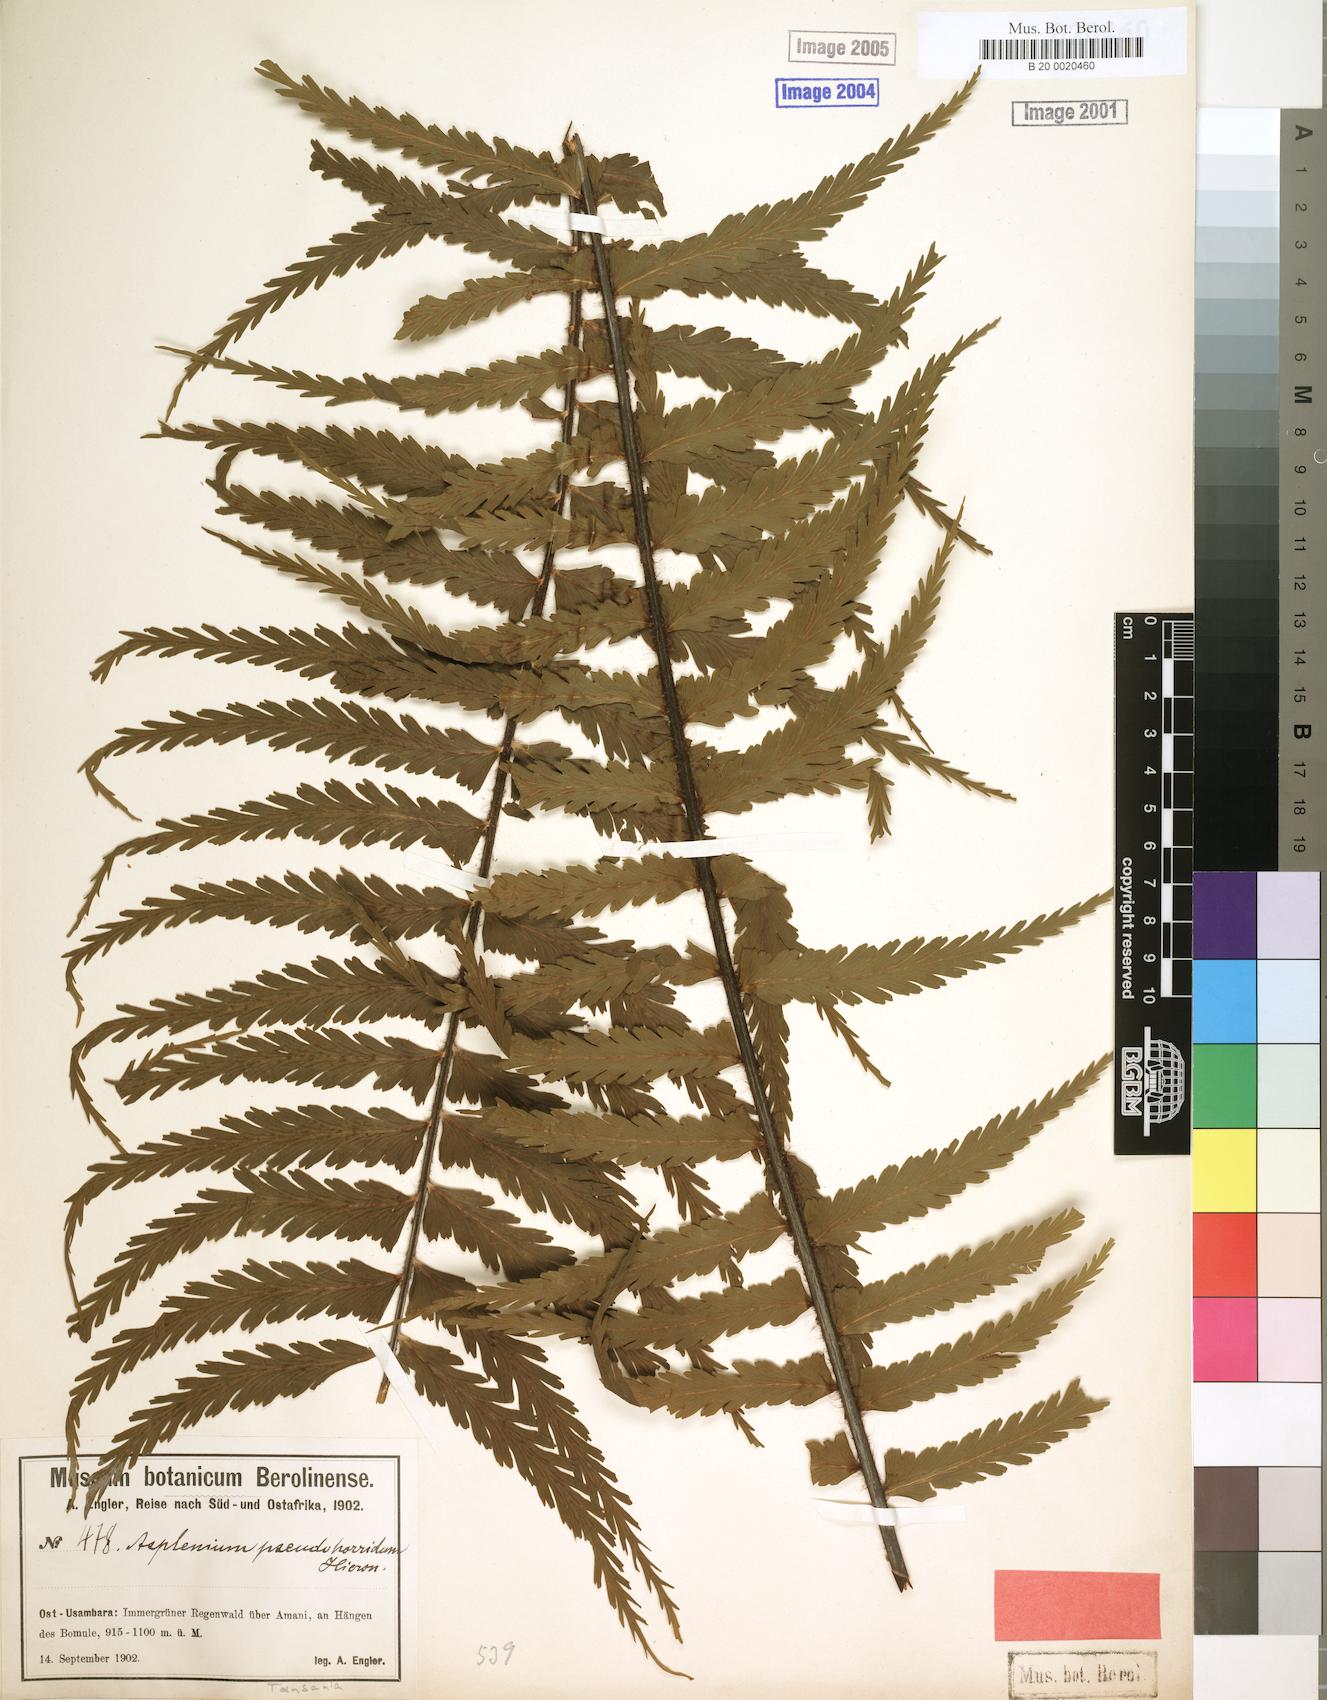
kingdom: Plantae
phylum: Tracheophyta
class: Polypodiopsida
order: Polypodiales
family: Aspleniaceae
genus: Asplenium
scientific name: Asplenium pellucidum
